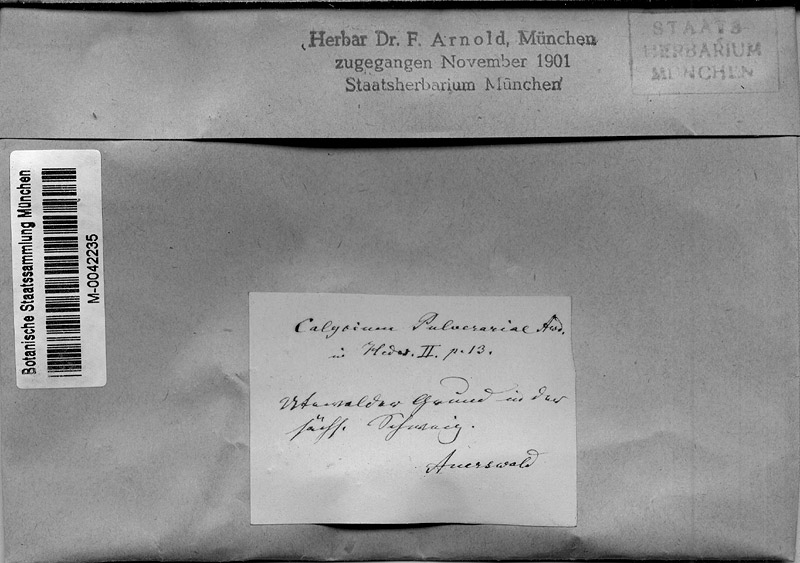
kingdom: Fungi
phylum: Ascomycota
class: Lecanoromycetes
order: Pertusariales
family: Microcaliciaceae
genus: Microcalicium
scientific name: Microcalicium arenarium
